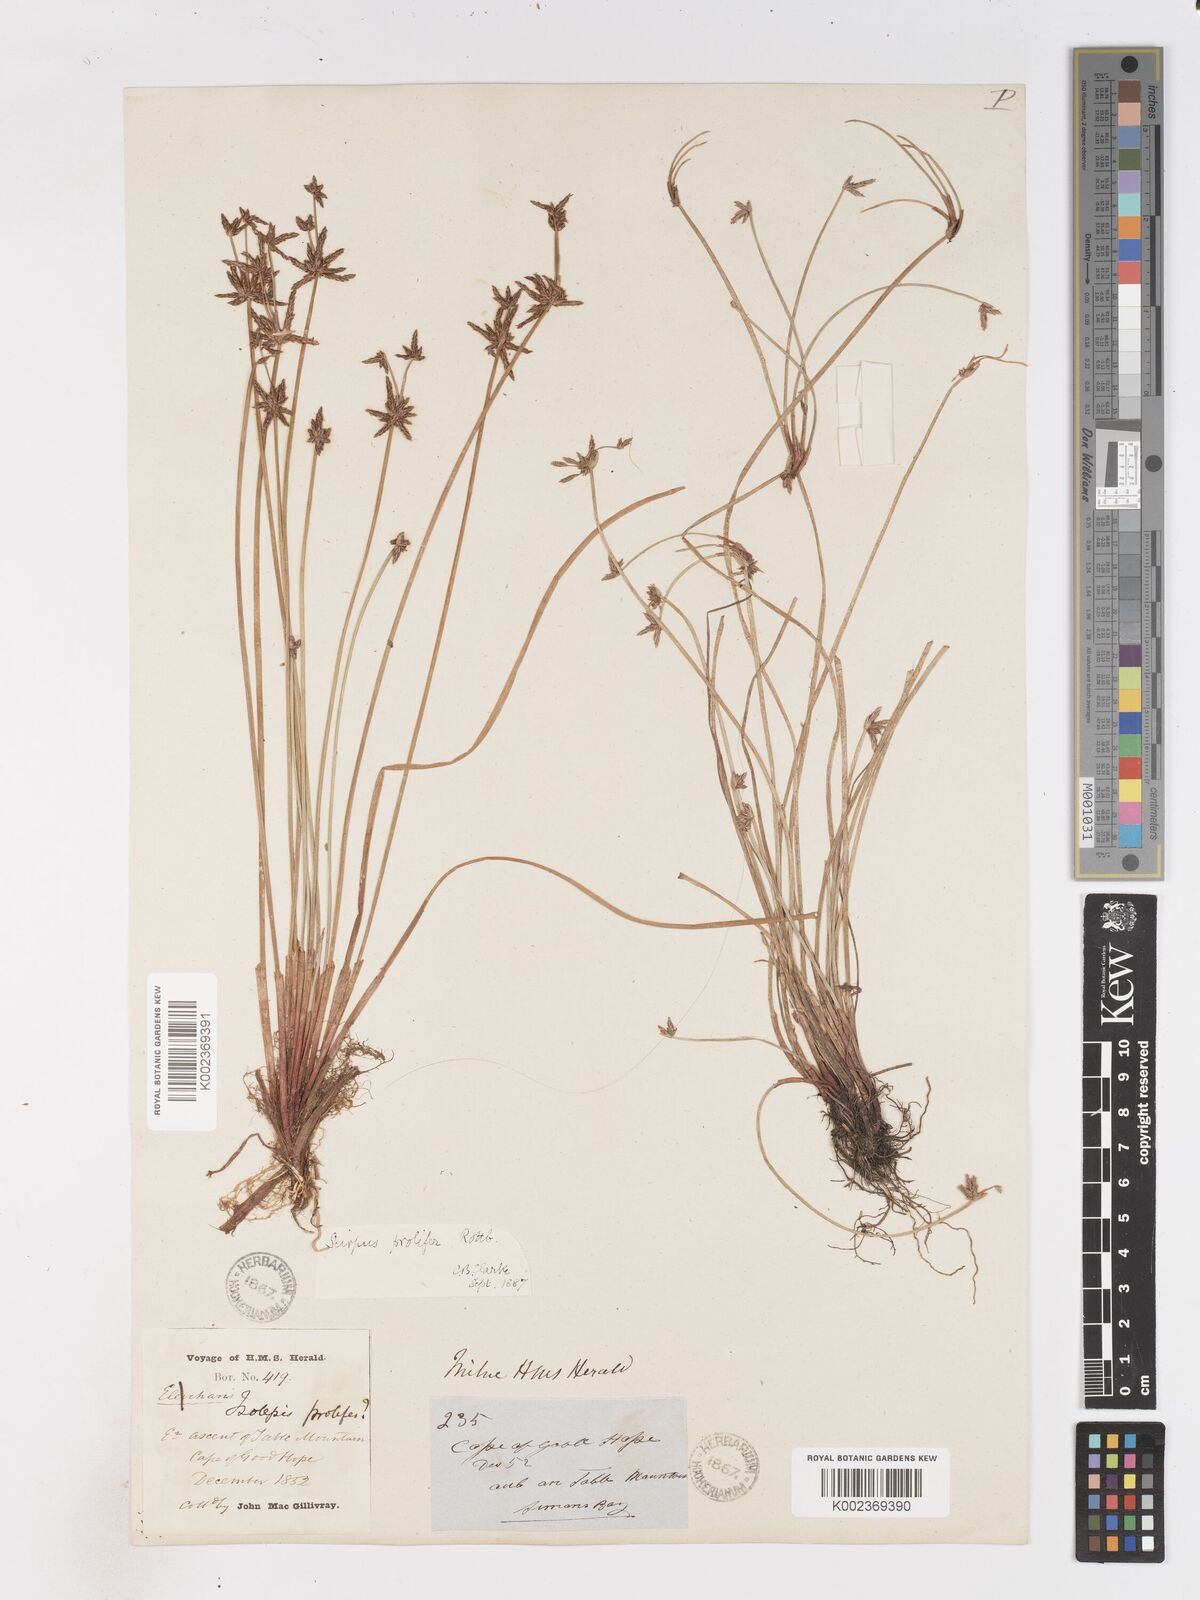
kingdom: Plantae
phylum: Tracheophyta
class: Liliopsida
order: Poales
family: Cyperaceae
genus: Isolepis
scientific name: Isolepis prolifera
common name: Proliferating bulrush
